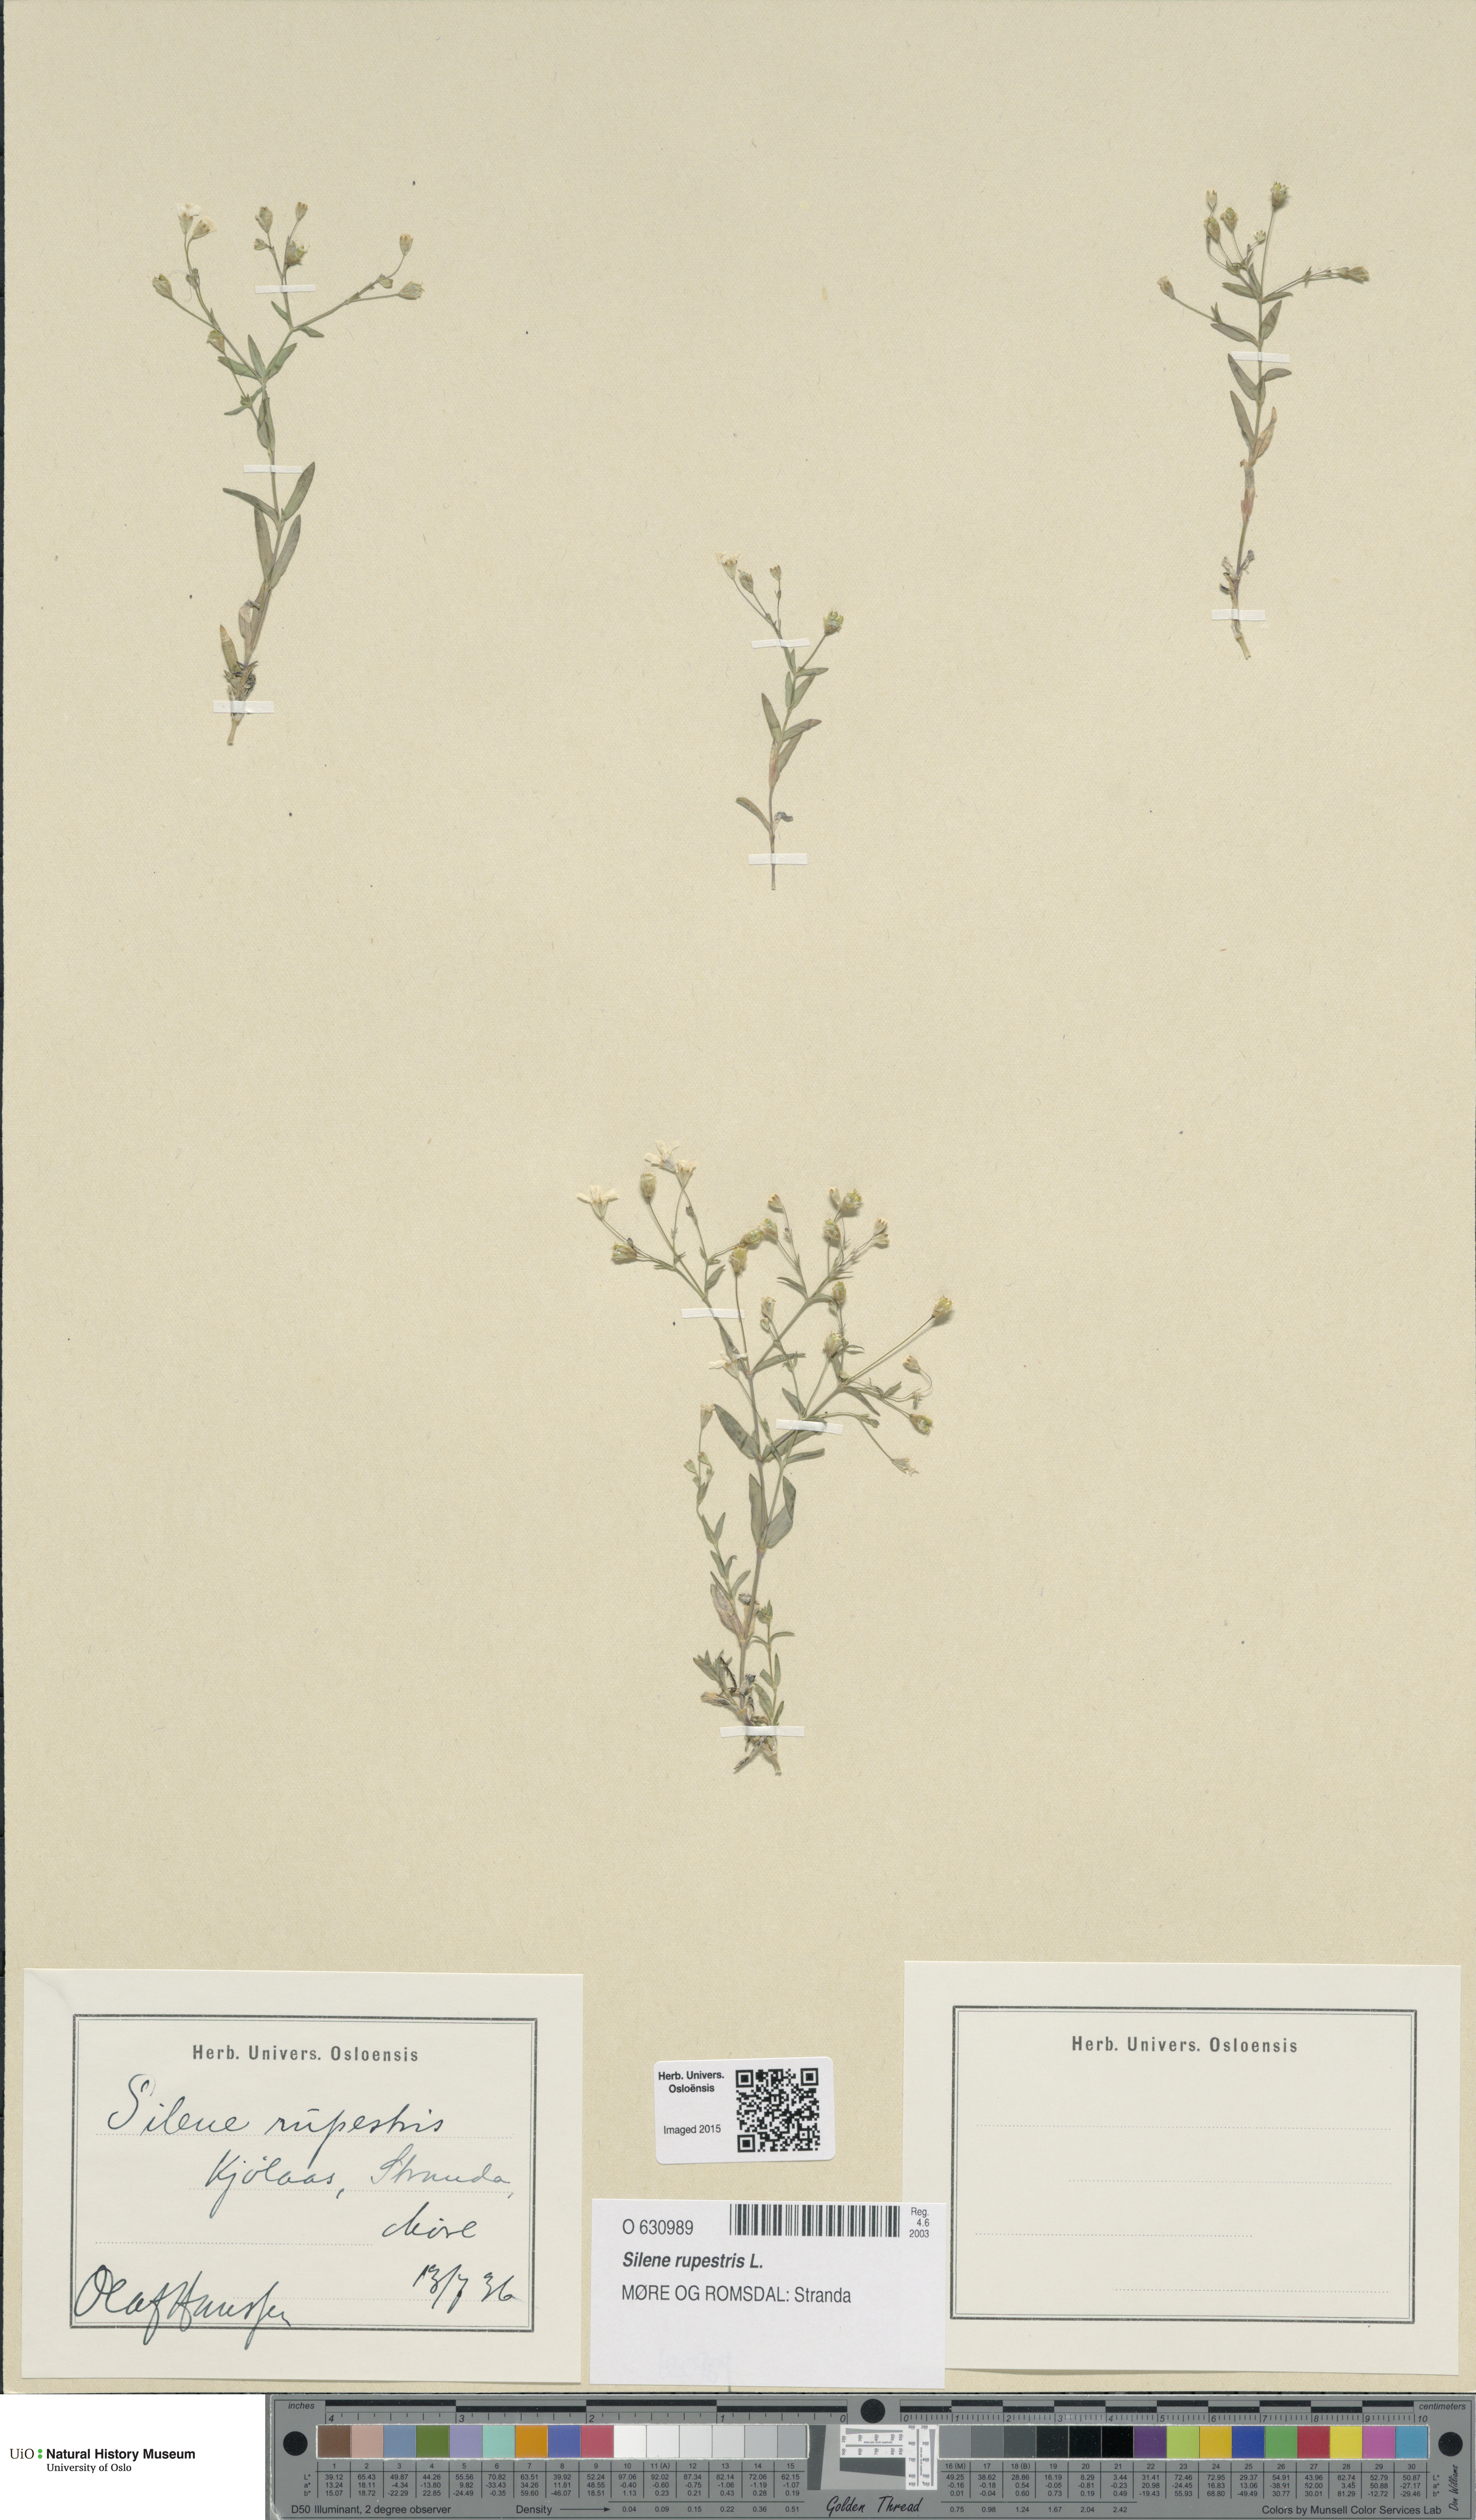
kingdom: Plantae
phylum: Tracheophyta
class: Magnoliopsida
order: Caryophyllales
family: Caryophyllaceae
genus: Atocion
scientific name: Atocion rupestre
